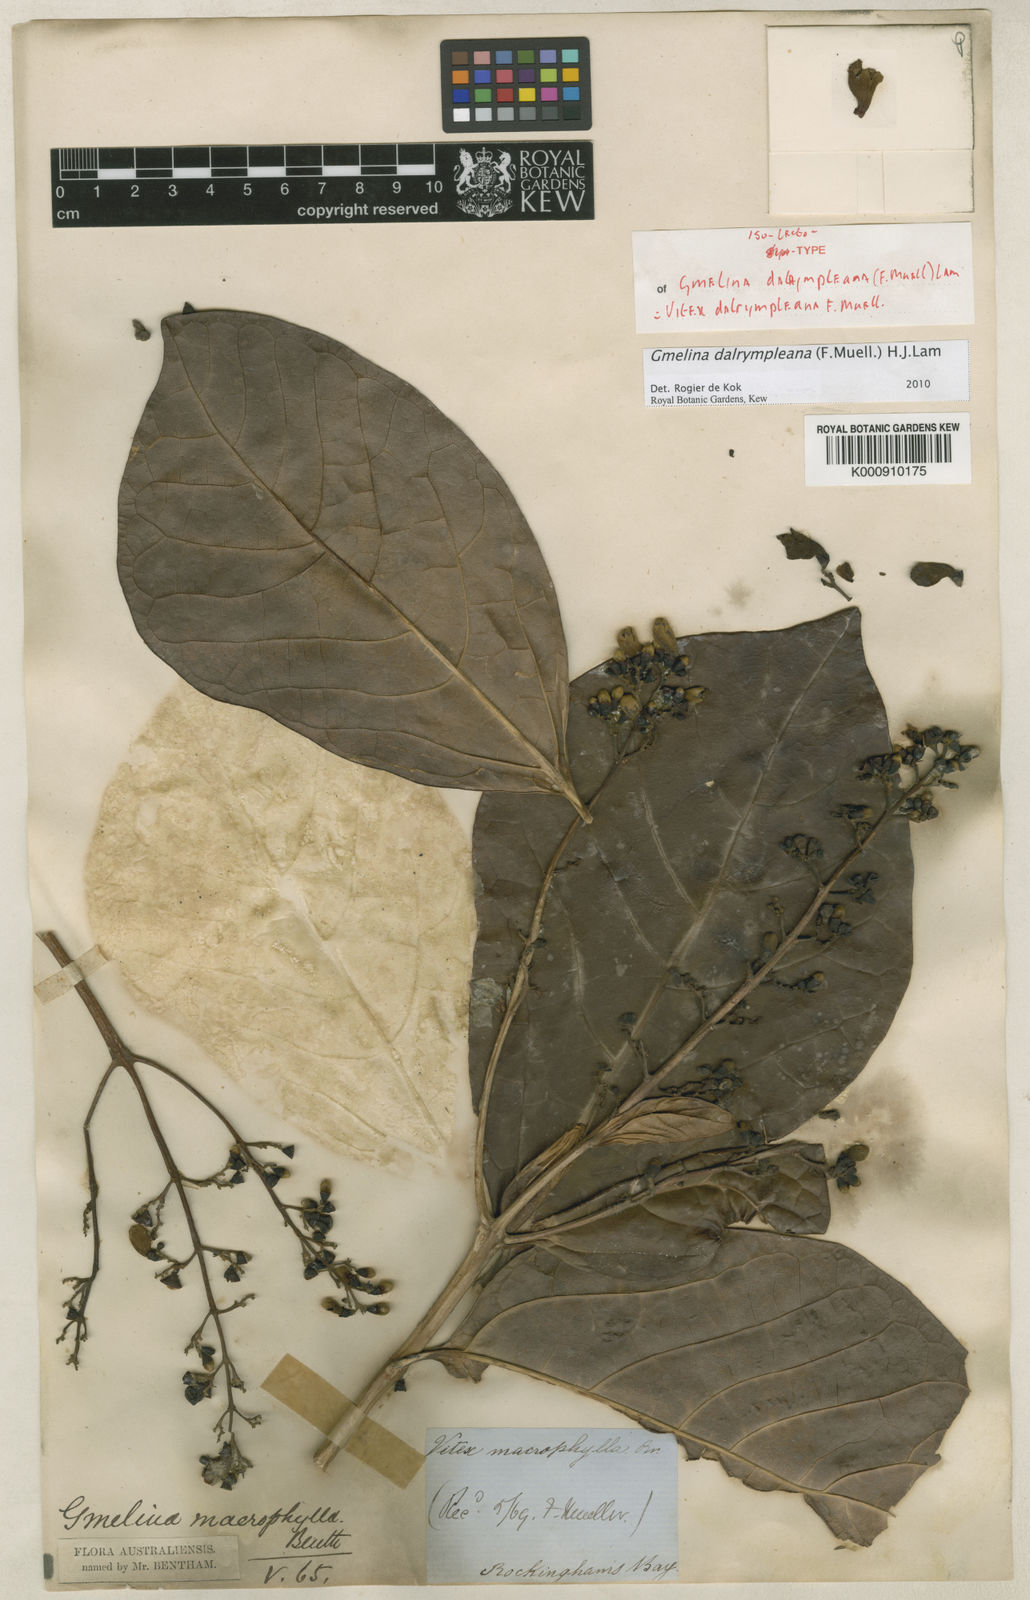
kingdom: Plantae
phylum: Tracheophyta
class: Magnoliopsida
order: Lamiales
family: Lamiaceae
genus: Gmelina
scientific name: Gmelina dalrympleana
